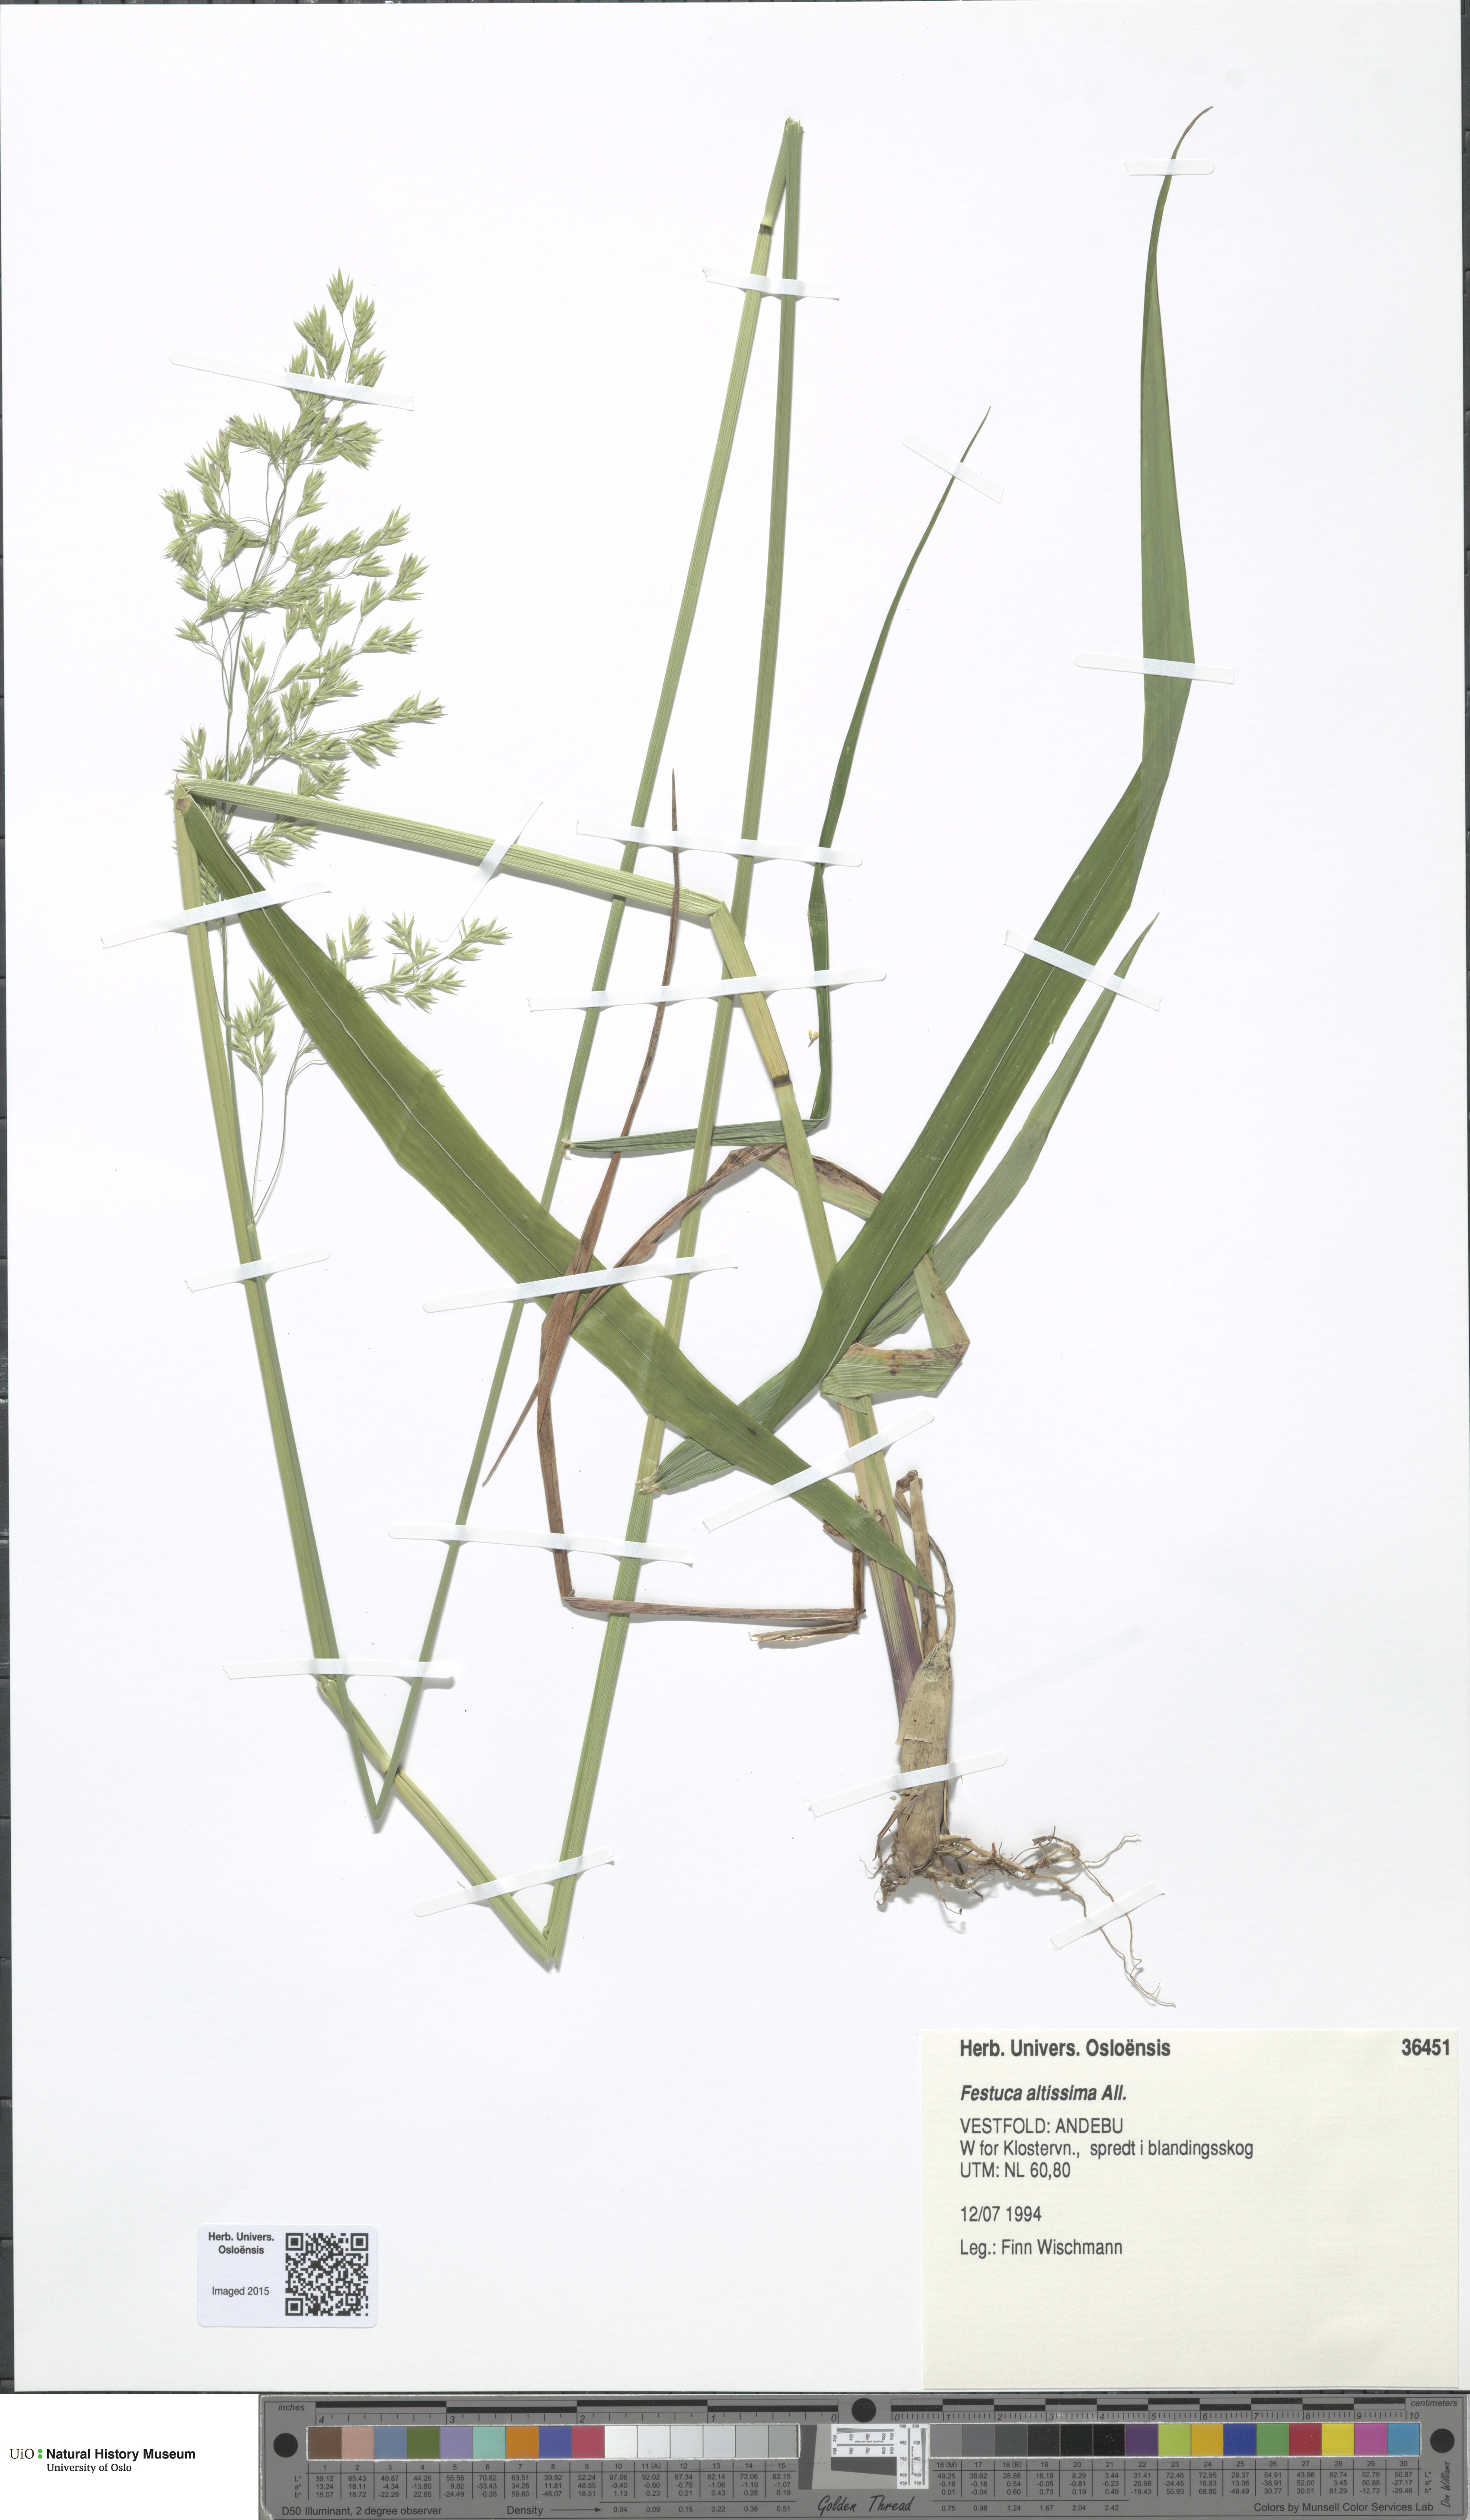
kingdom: Plantae
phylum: Tracheophyta
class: Liliopsida
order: Poales
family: Poaceae
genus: Festuca
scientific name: Festuca altissima
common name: Wood fescue
